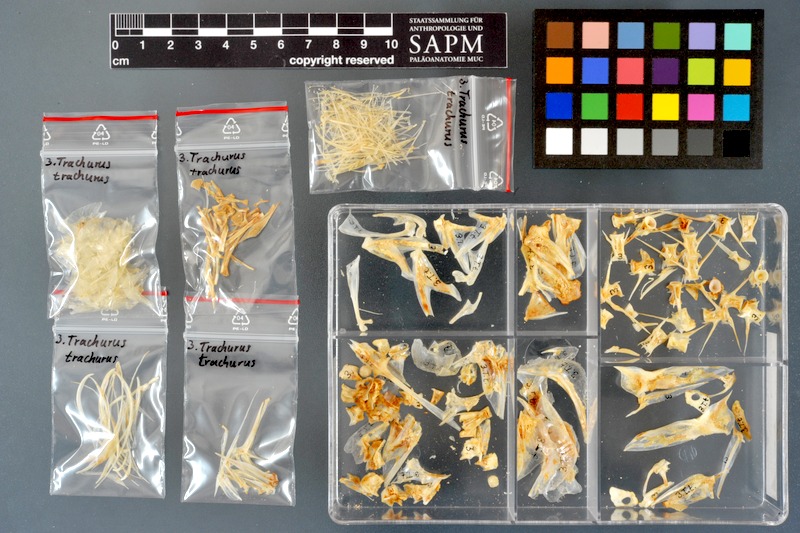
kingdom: Animalia
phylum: Chordata
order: Perciformes
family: Carangidae
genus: Trachurus
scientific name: Trachurus trachurus
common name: Horse mackerel
